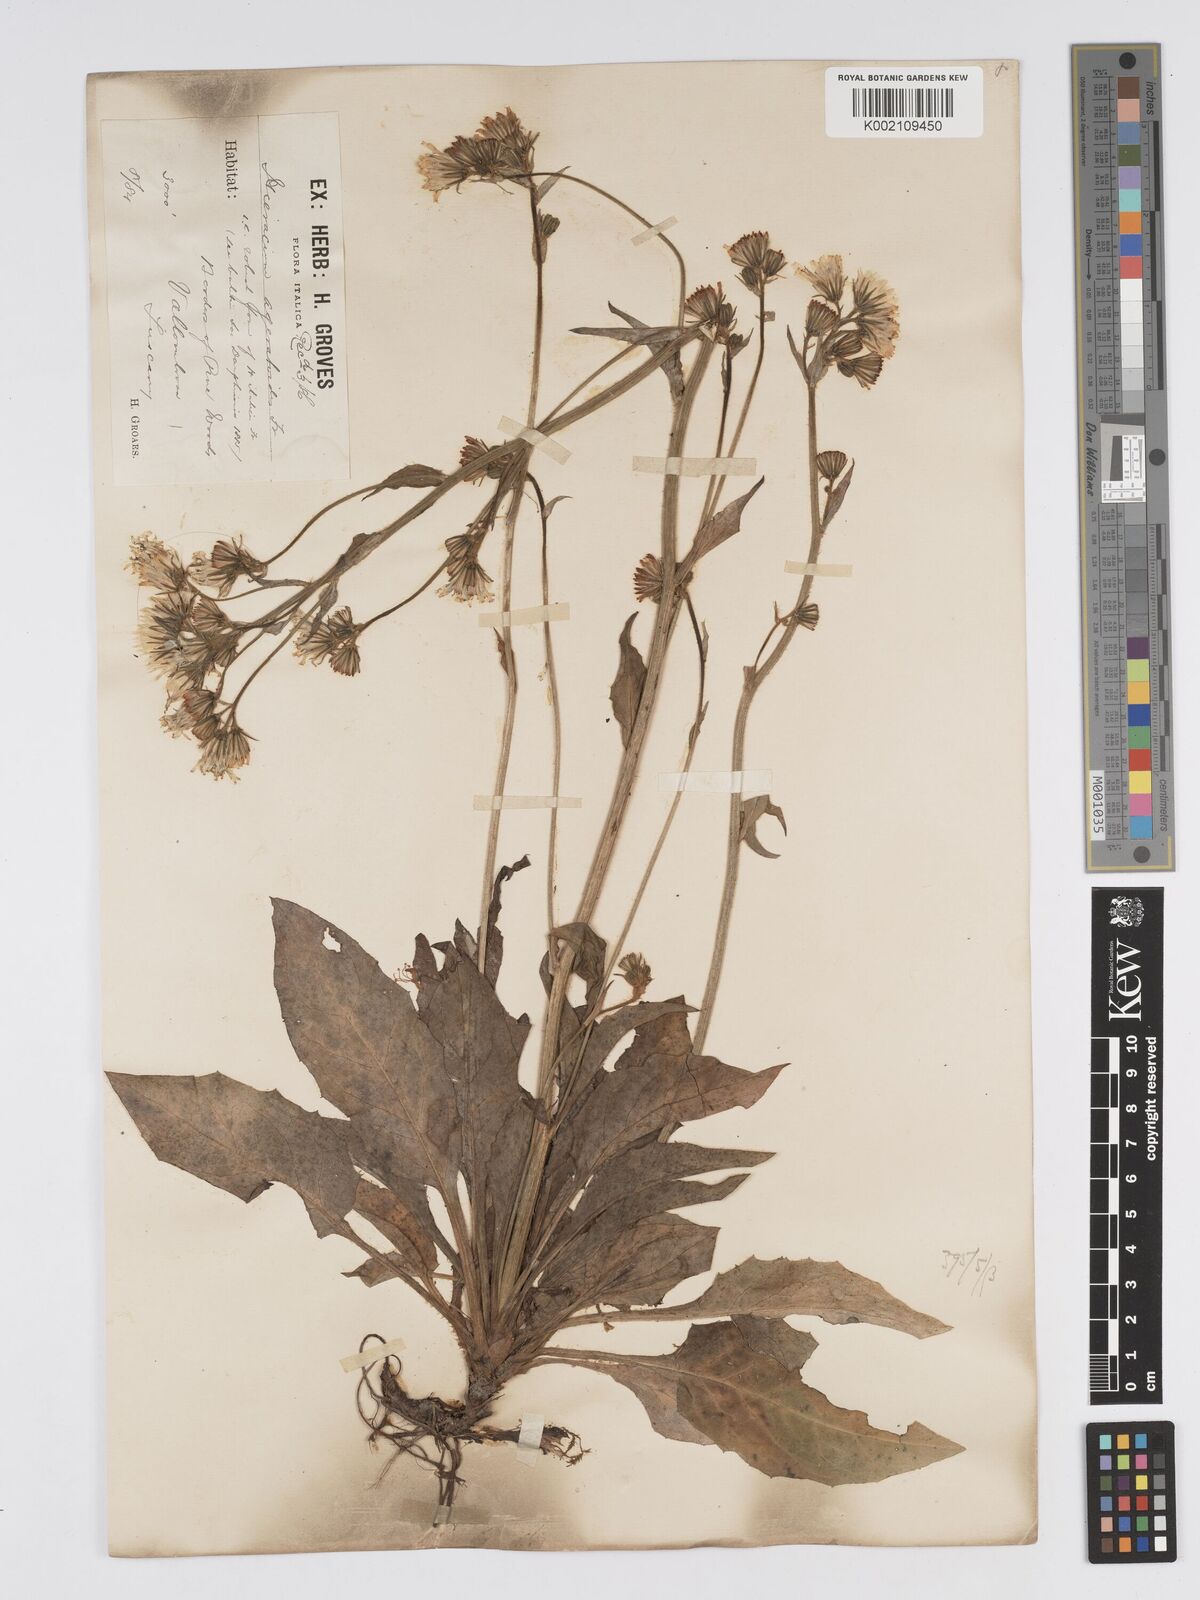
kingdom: Plantae
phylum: Tracheophyta
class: Magnoliopsida
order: Asterales
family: Asteraceae
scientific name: Asteraceae
